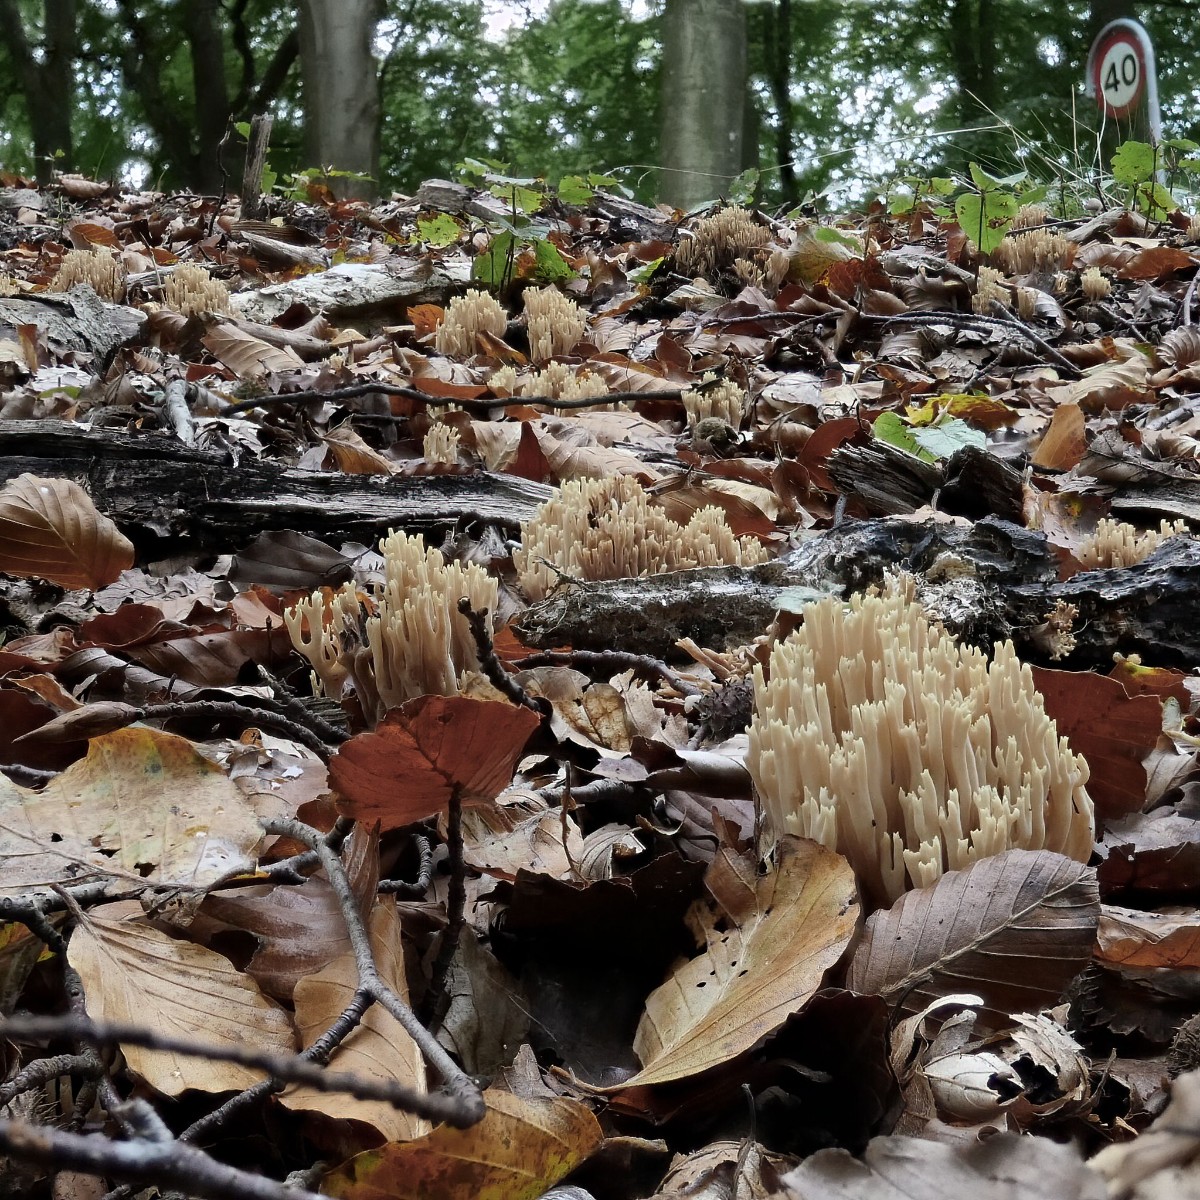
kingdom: Fungi
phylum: Basidiomycota
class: Agaricomycetes
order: Gomphales
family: Gomphaceae
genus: Ramaria
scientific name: Ramaria stricta
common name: rank koralsvamp
